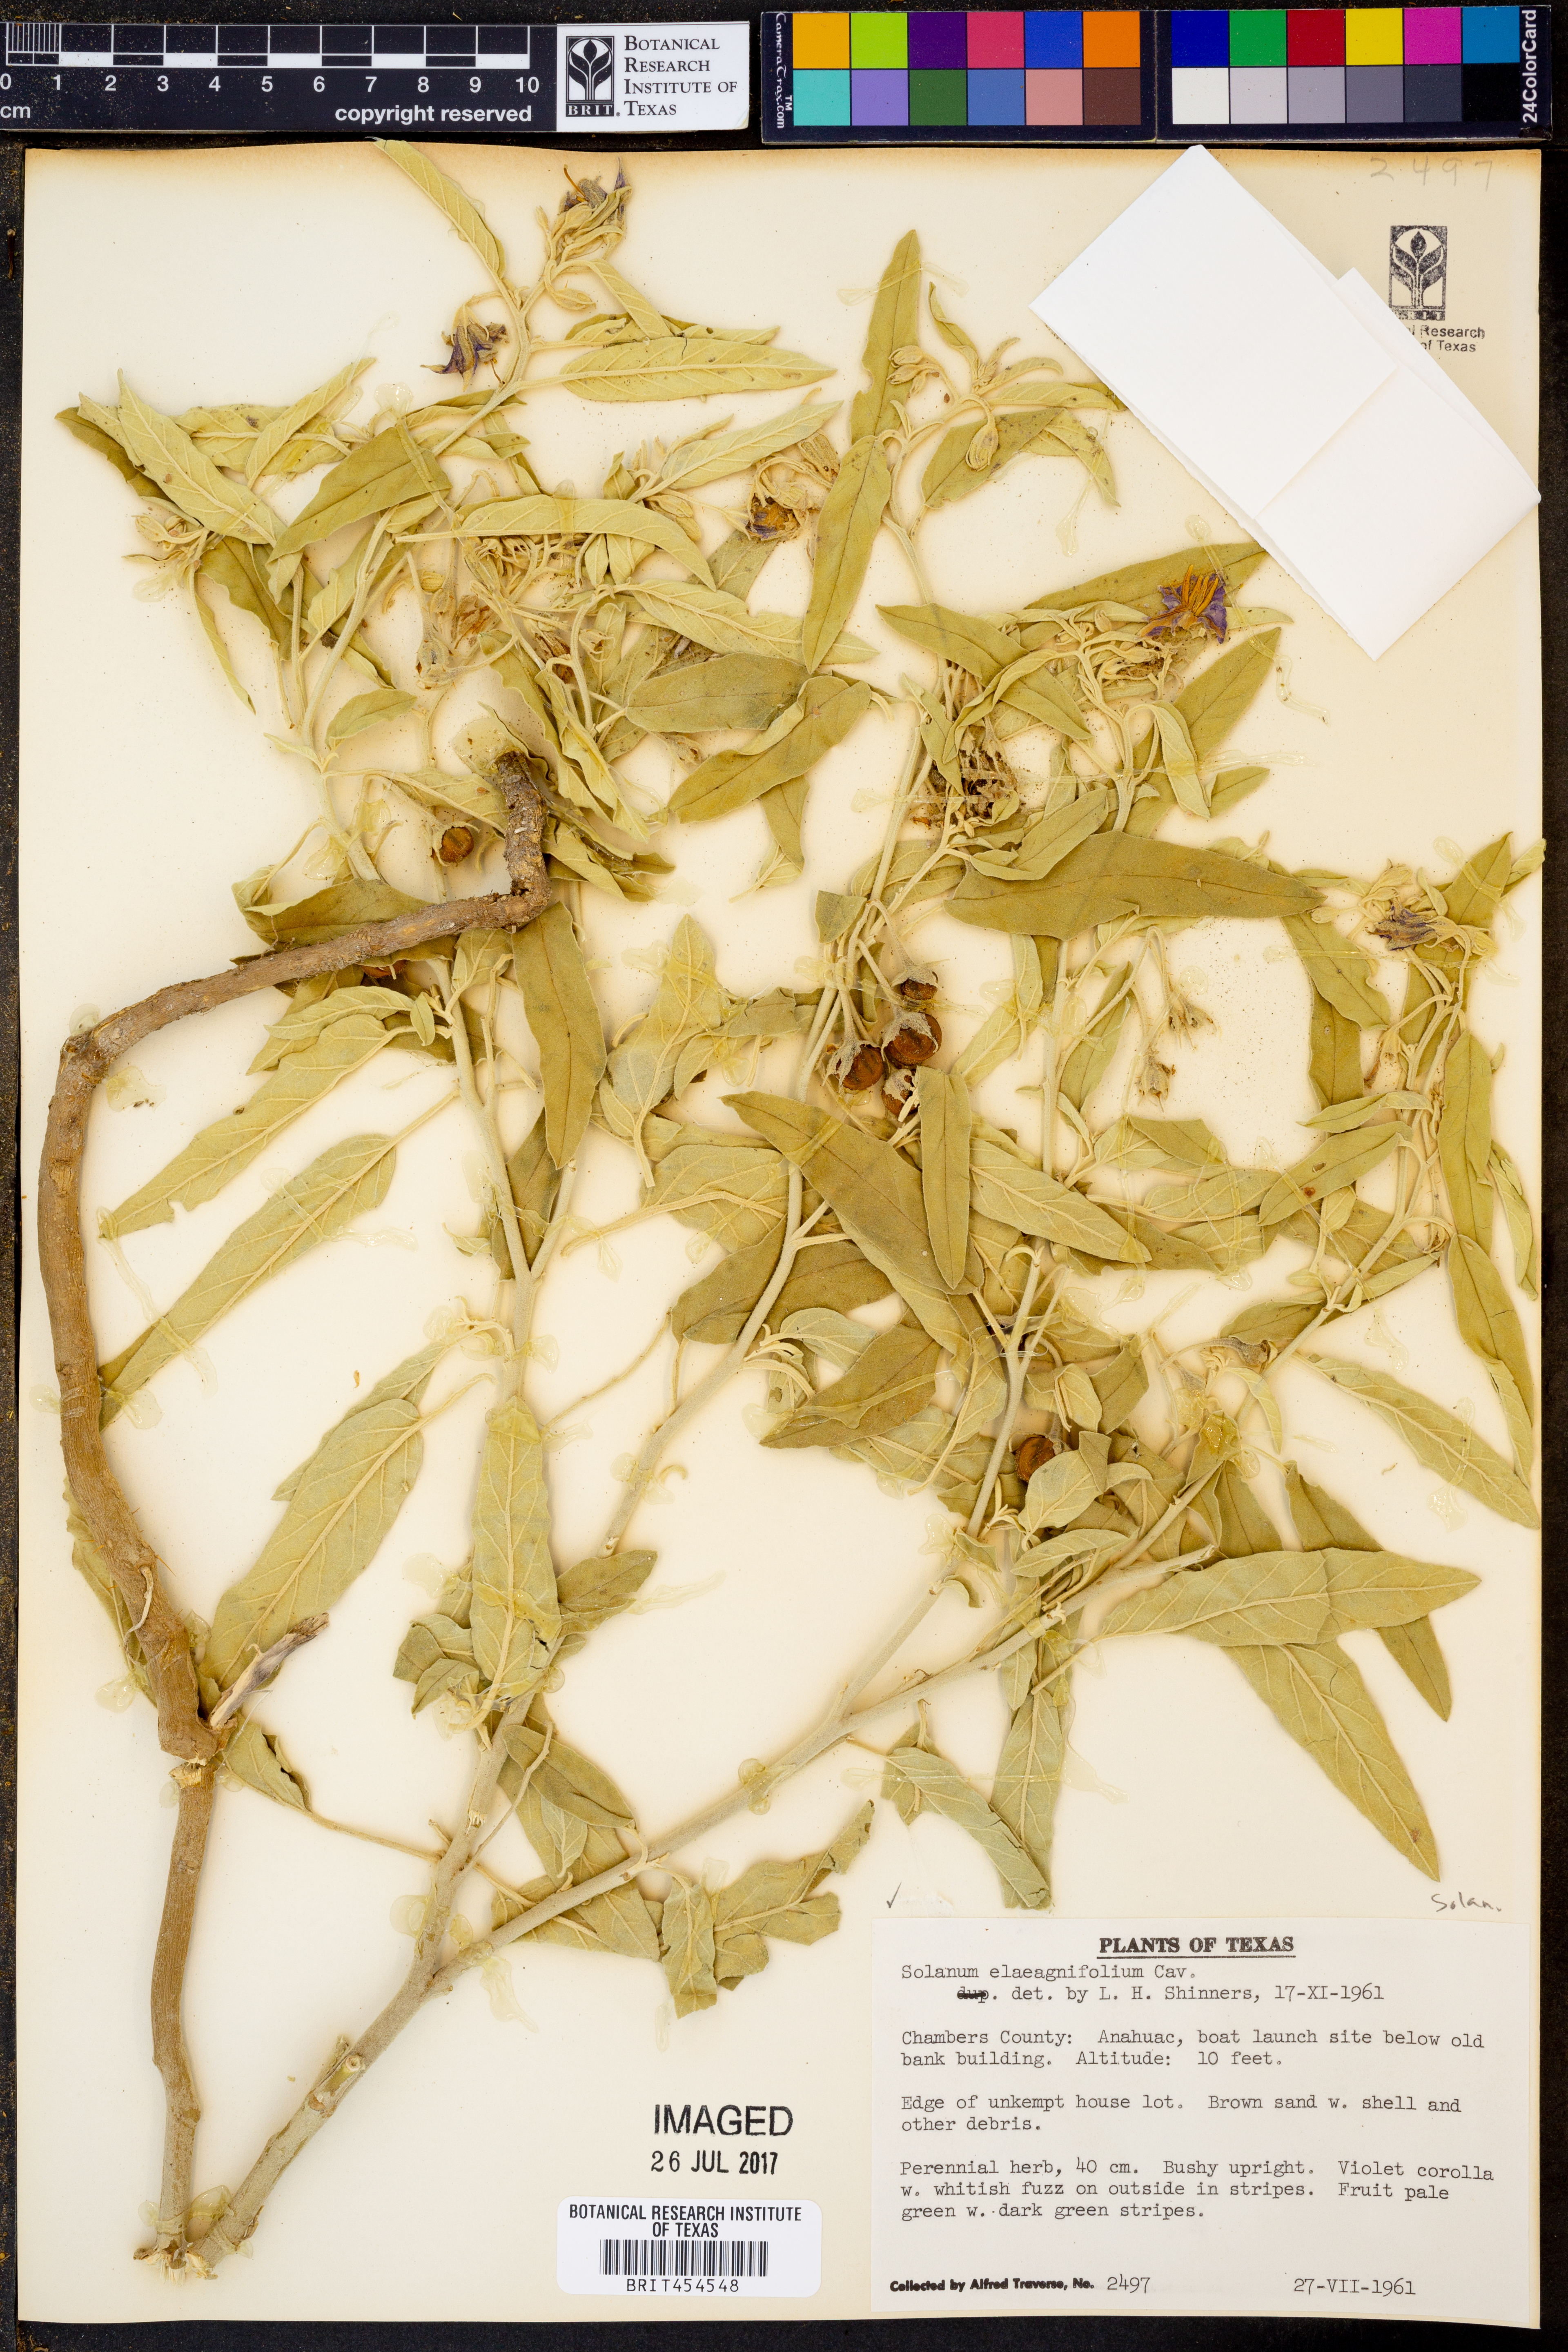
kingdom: Plantae
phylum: Tracheophyta
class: Magnoliopsida
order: Solanales
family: Solanaceae
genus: Solanum
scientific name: Solanum elaeagnifolium
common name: Silverleaf nightshade
